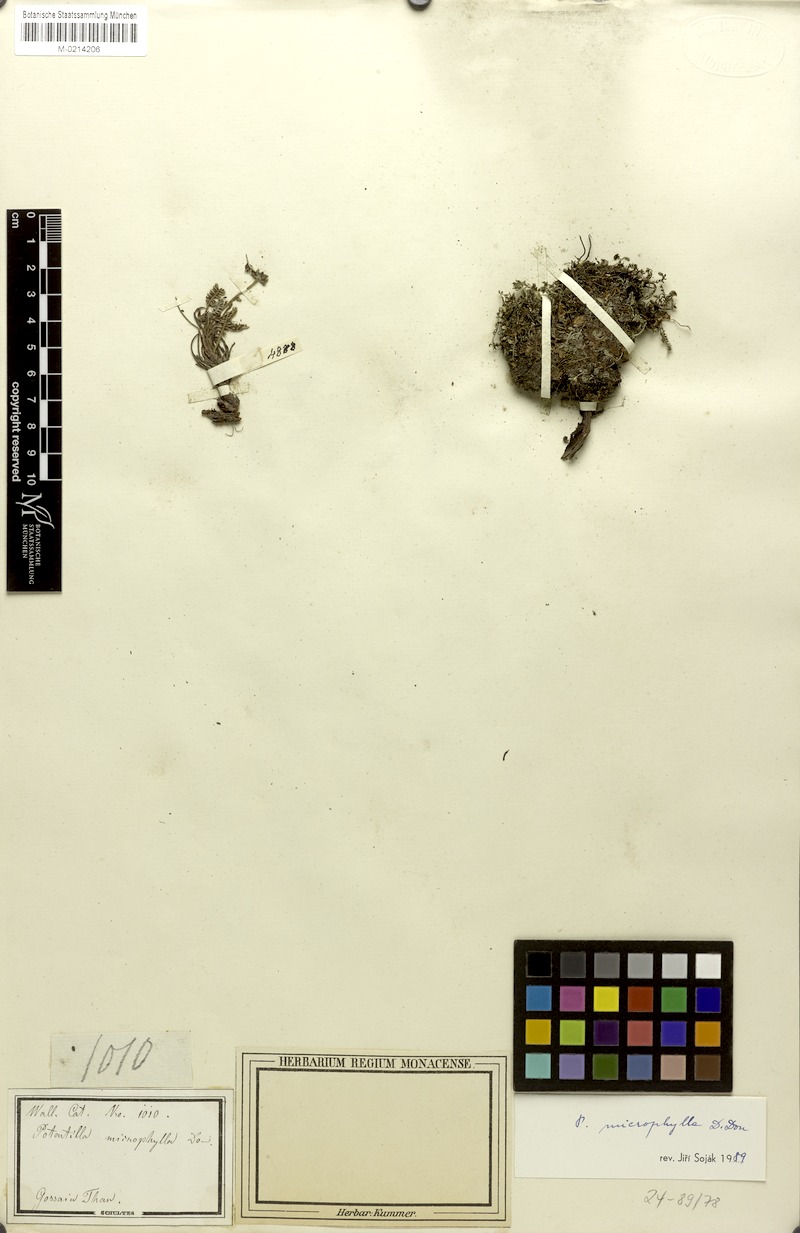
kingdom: Plantae
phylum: Tracheophyta
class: Magnoliopsida
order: Rosales
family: Rosaceae
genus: Argentina
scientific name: Argentina microphylla
